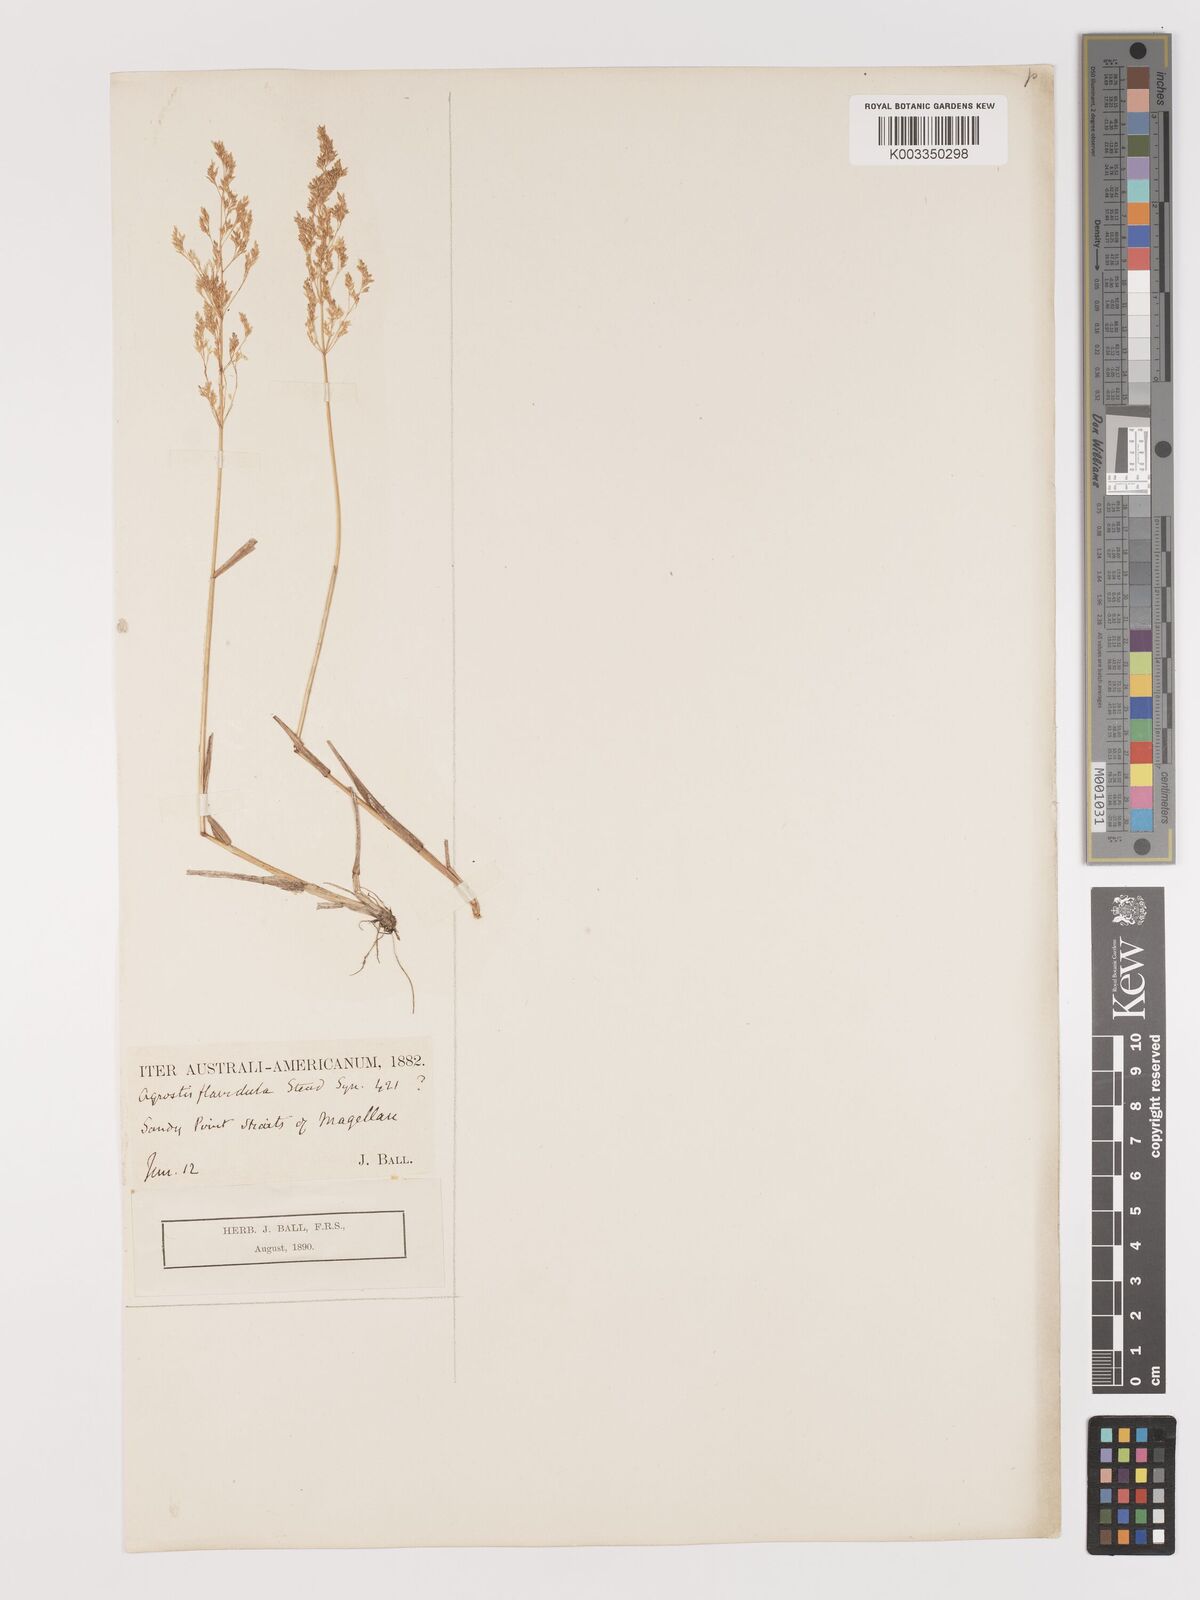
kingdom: Plantae
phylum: Tracheophyta
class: Liliopsida
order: Poales
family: Poaceae
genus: Agrostis
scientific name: Agrostis perennans
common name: Autumn bent
